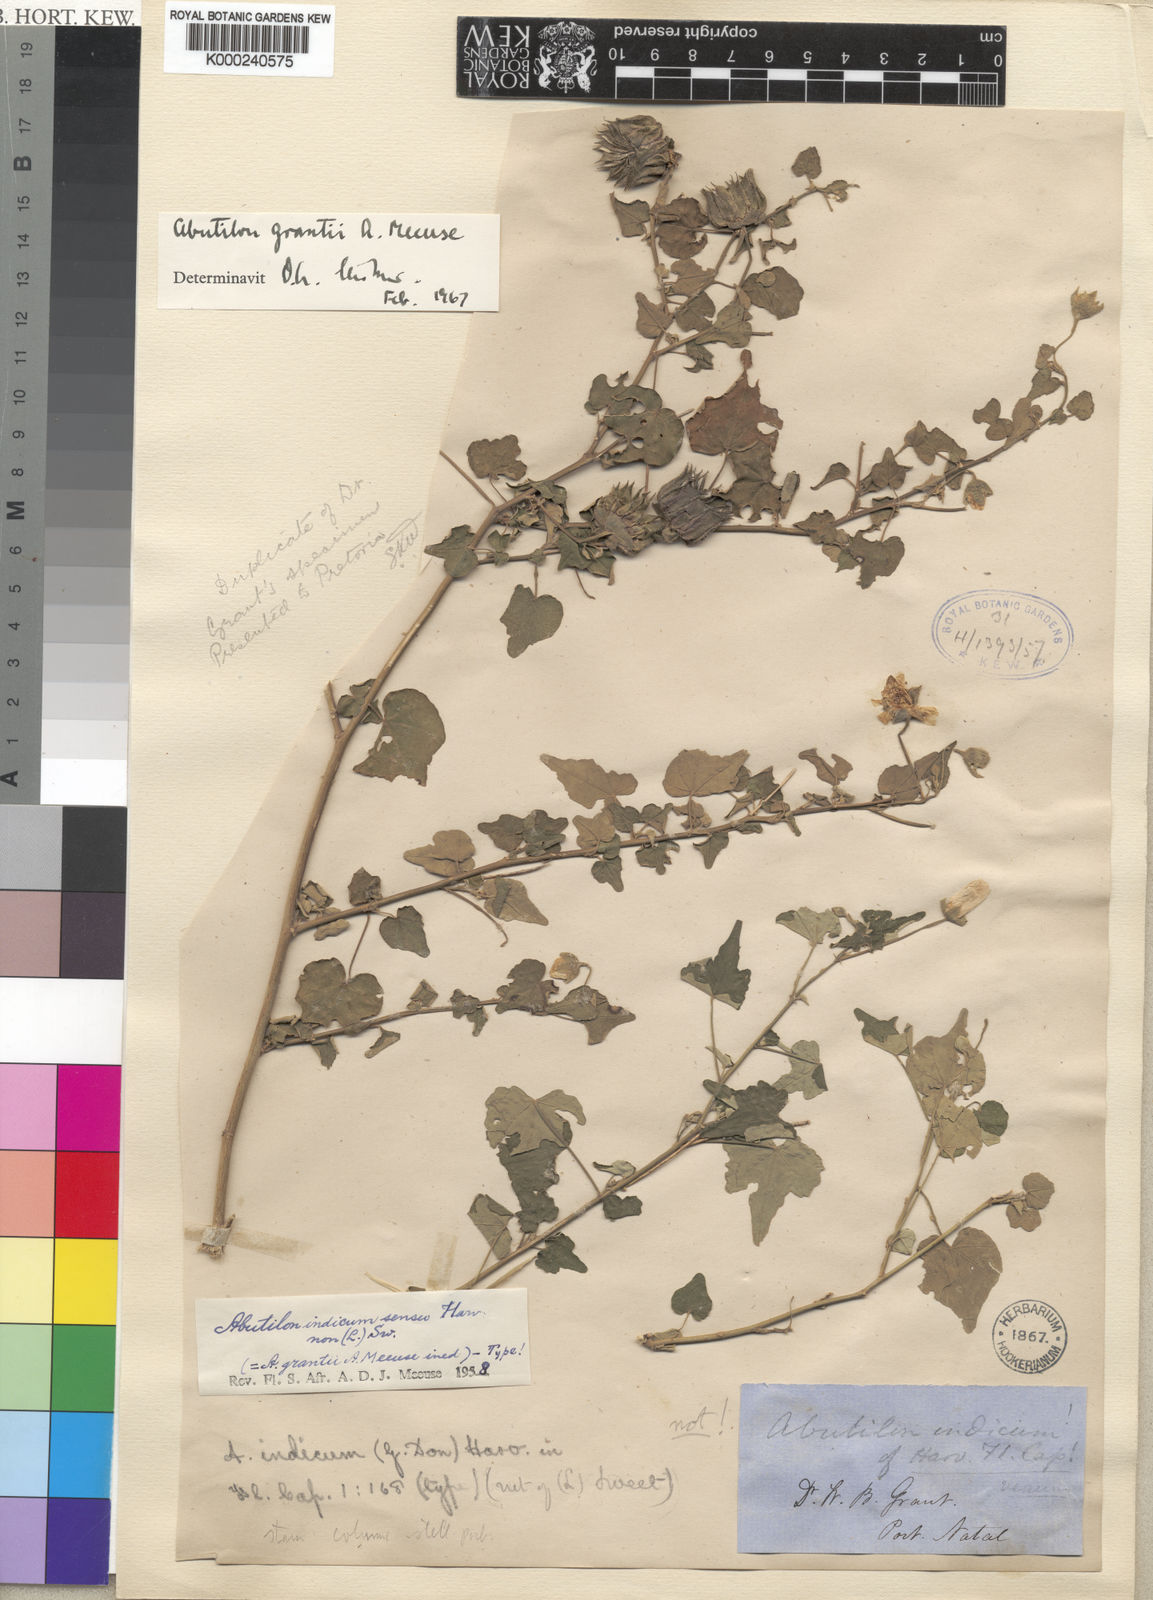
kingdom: Plantae
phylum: Tracheophyta
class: Magnoliopsida
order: Malvales
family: Malvaceae
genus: Abutilon
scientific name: Abutilon grantii
